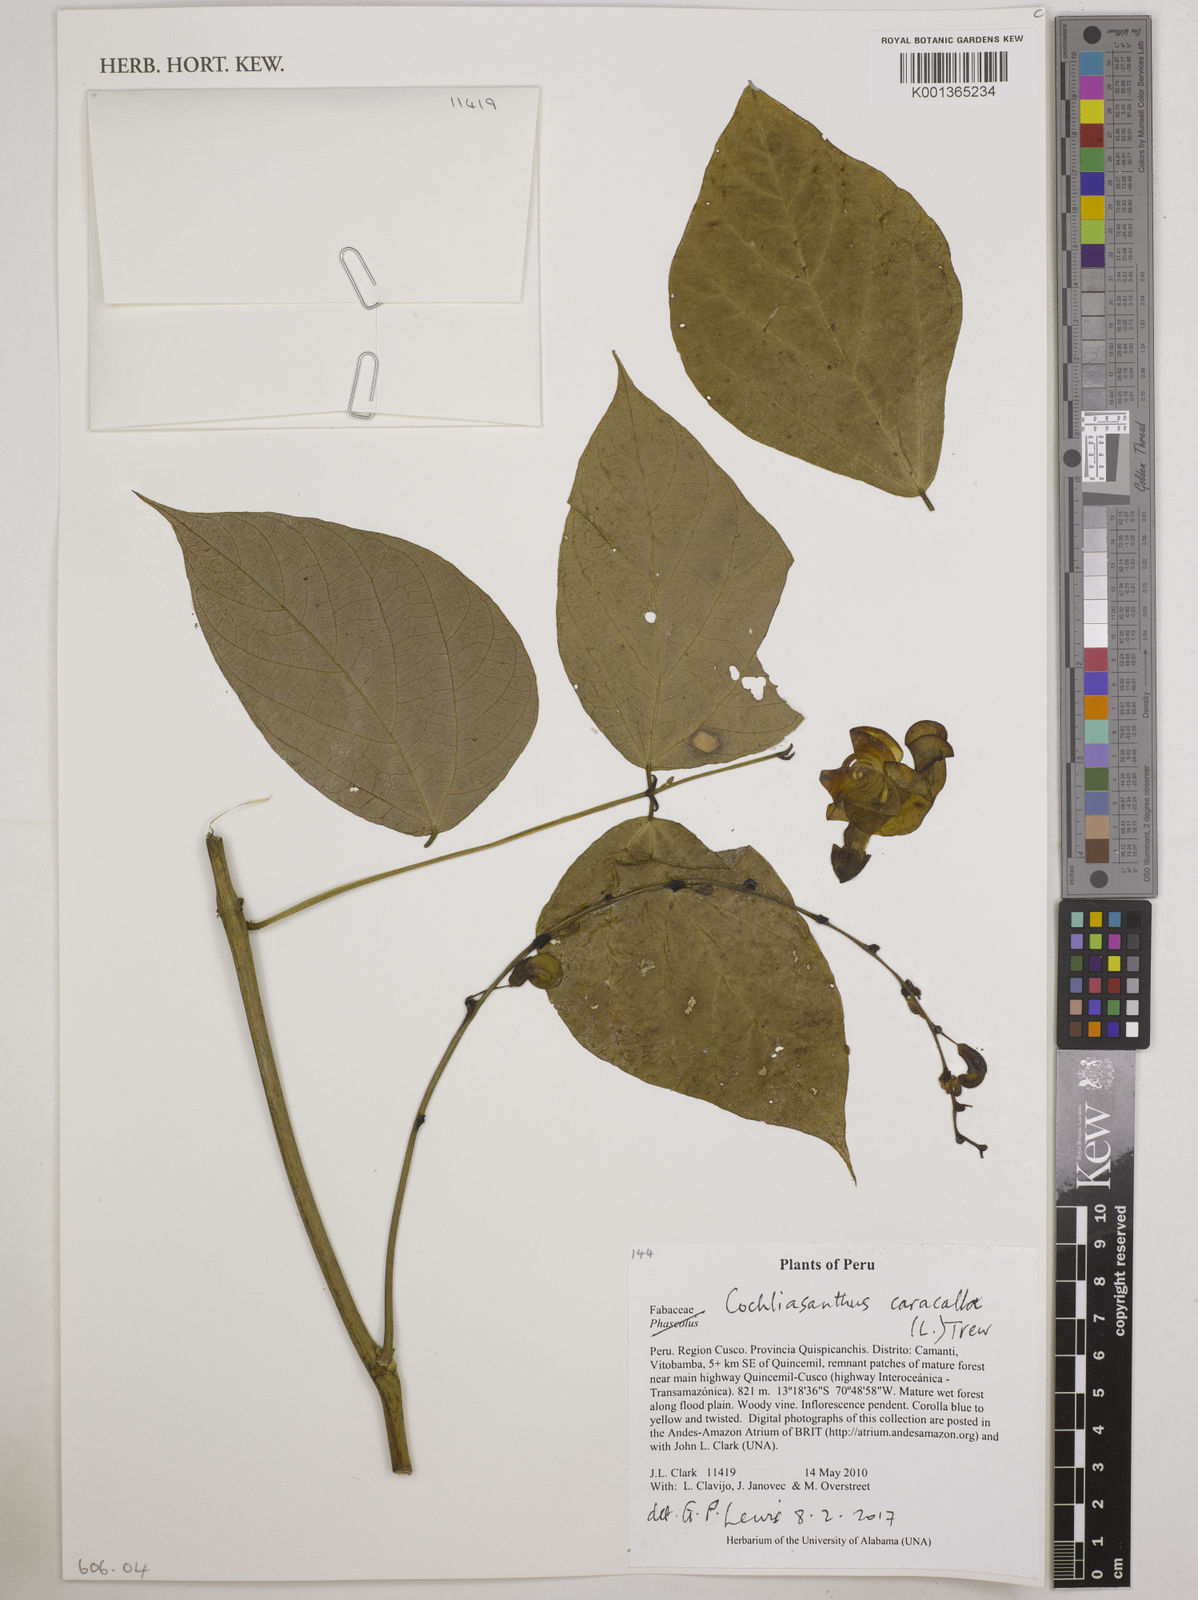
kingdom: Plantae
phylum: Tracheophyta
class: Magnoliopsida
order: Fabales
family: Fabaceae
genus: Cochliasanthus
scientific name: Cochliasanthus caracalla
